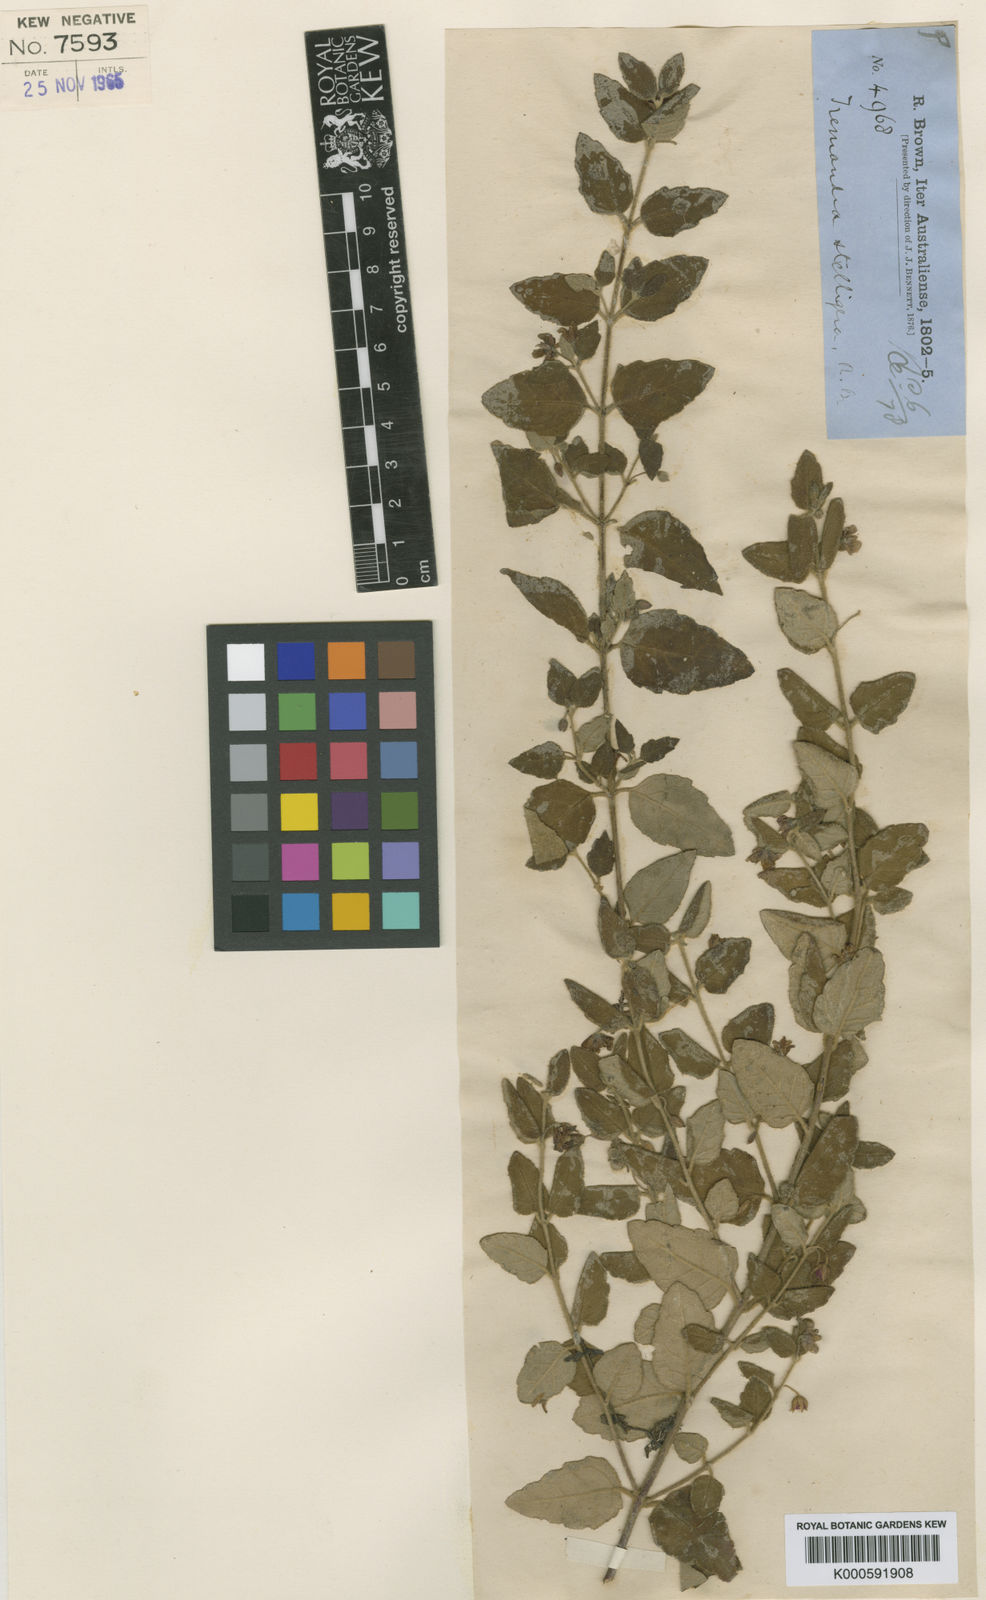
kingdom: Plantae
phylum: Tracheophyta
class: Magnoliopsida
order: Oxalidales
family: Elaeocarpaceae
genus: Tremandra
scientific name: Tremandra
